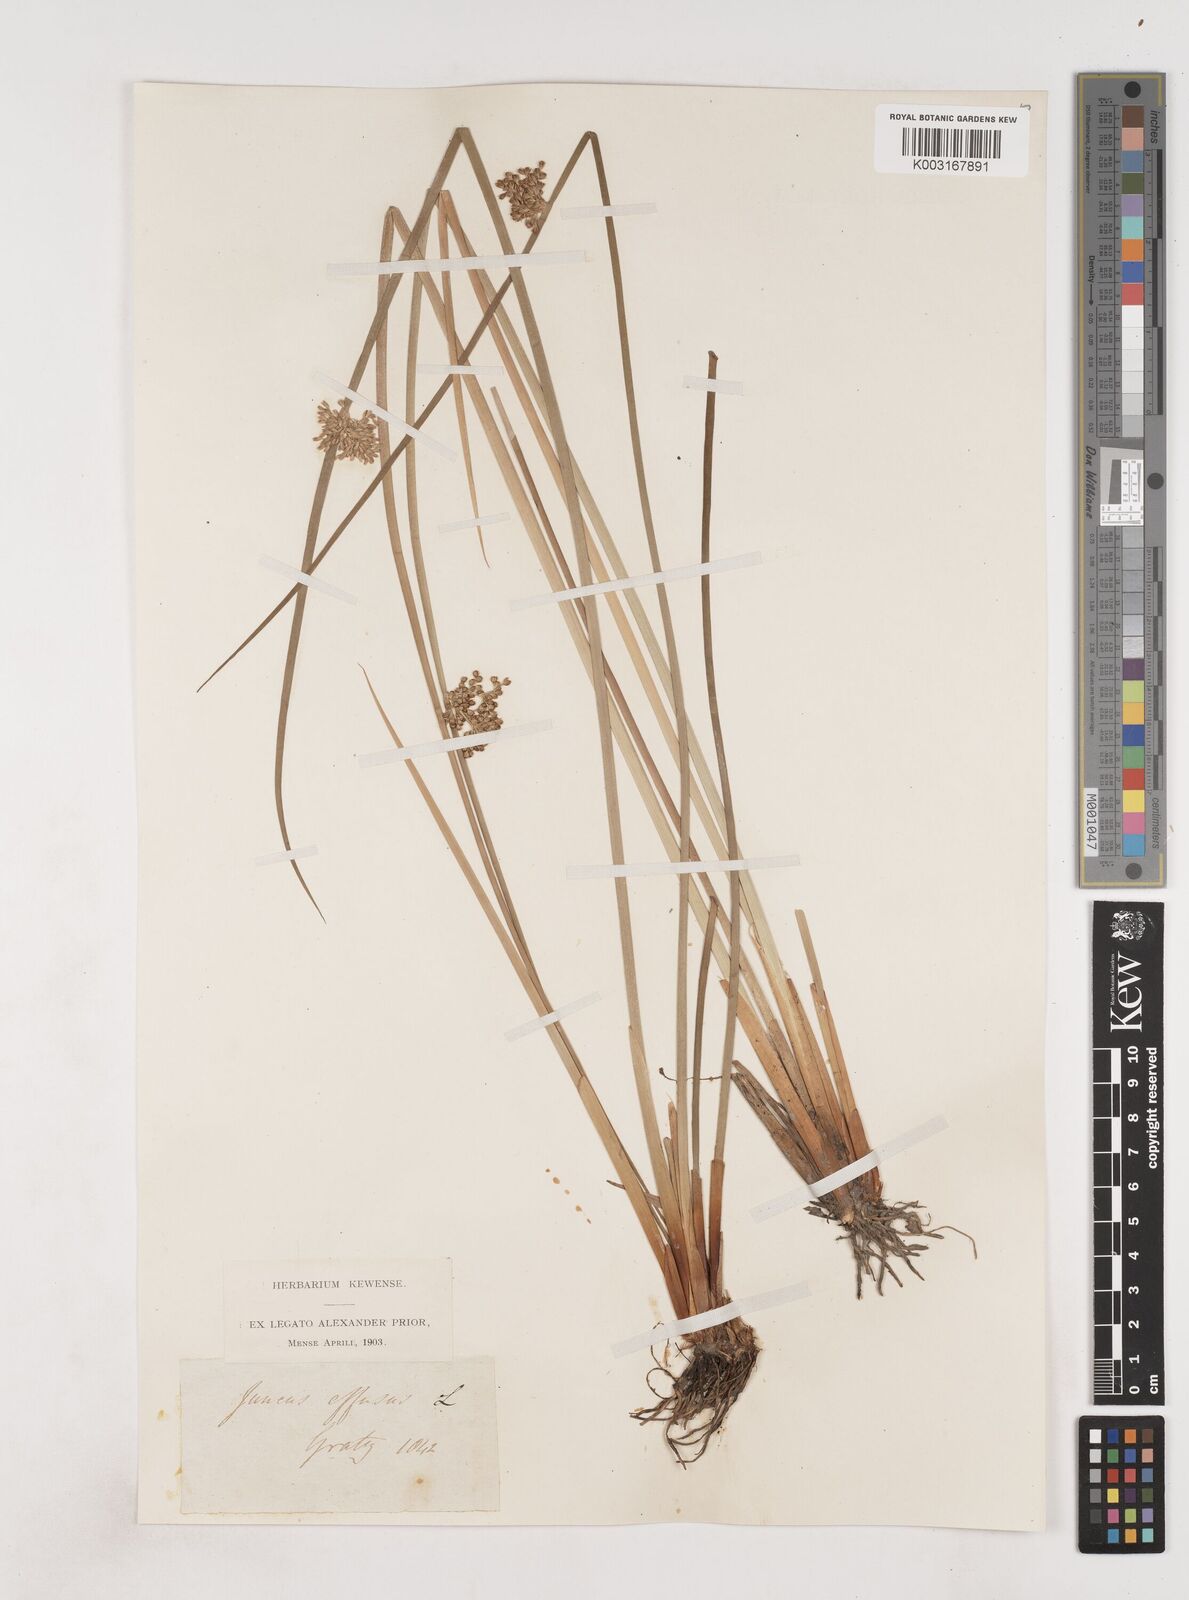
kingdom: Plantae
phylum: Tracheophyta
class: Liliopsida
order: Poales
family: Juncaceae
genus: Juncus
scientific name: Juncus effusus
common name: Soft rush
